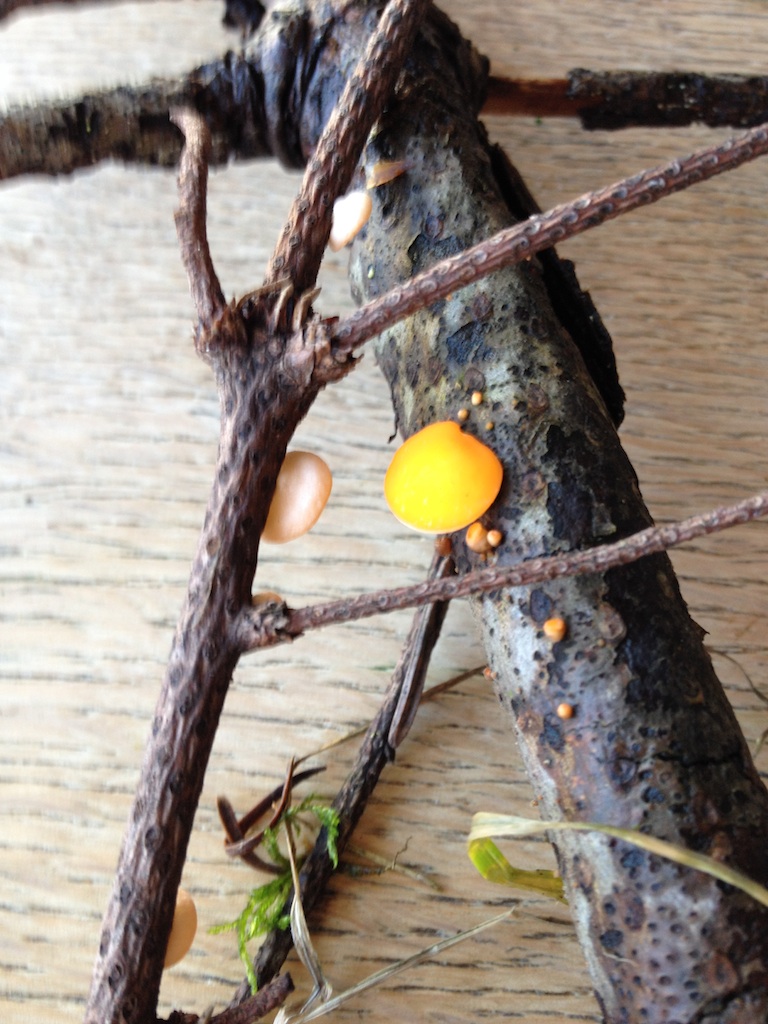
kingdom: Fungi
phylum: Ascomycota
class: Pezizomycetes
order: Pezizales
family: Sarcoscyphaceae
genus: Pithya
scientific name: Pithya vulgaris
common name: stor dukatbæger
